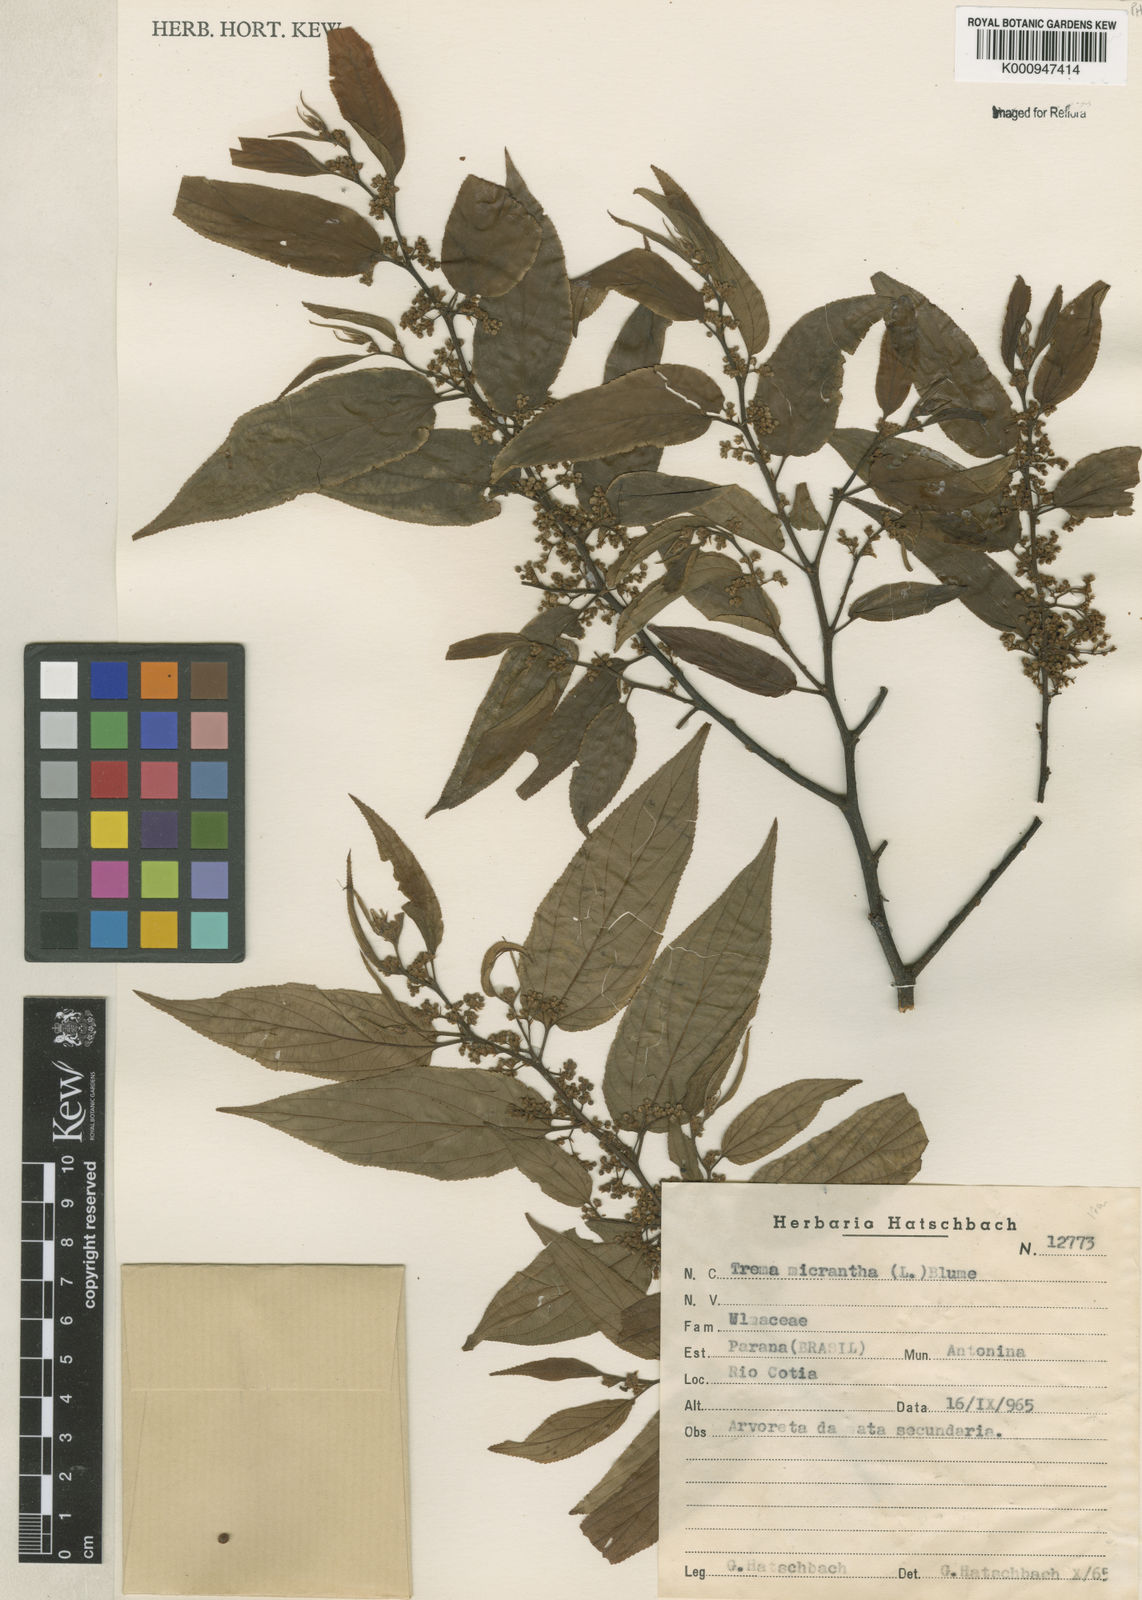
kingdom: Plantae
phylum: Tracheophyta
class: Magnoliopsida
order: Rosales
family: Cannabaceae
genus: Trema
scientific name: Trema micranthum
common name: Jamaican nettletree
